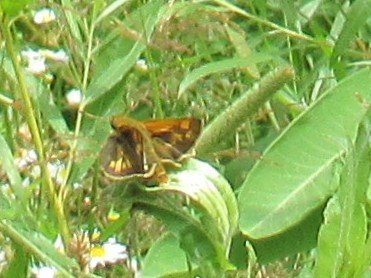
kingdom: Animalia
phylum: Arthropoda
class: Insecta
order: Lepidoptera
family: Hesperiidae
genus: Polites
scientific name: Polites coras
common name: Peck's Skipper
